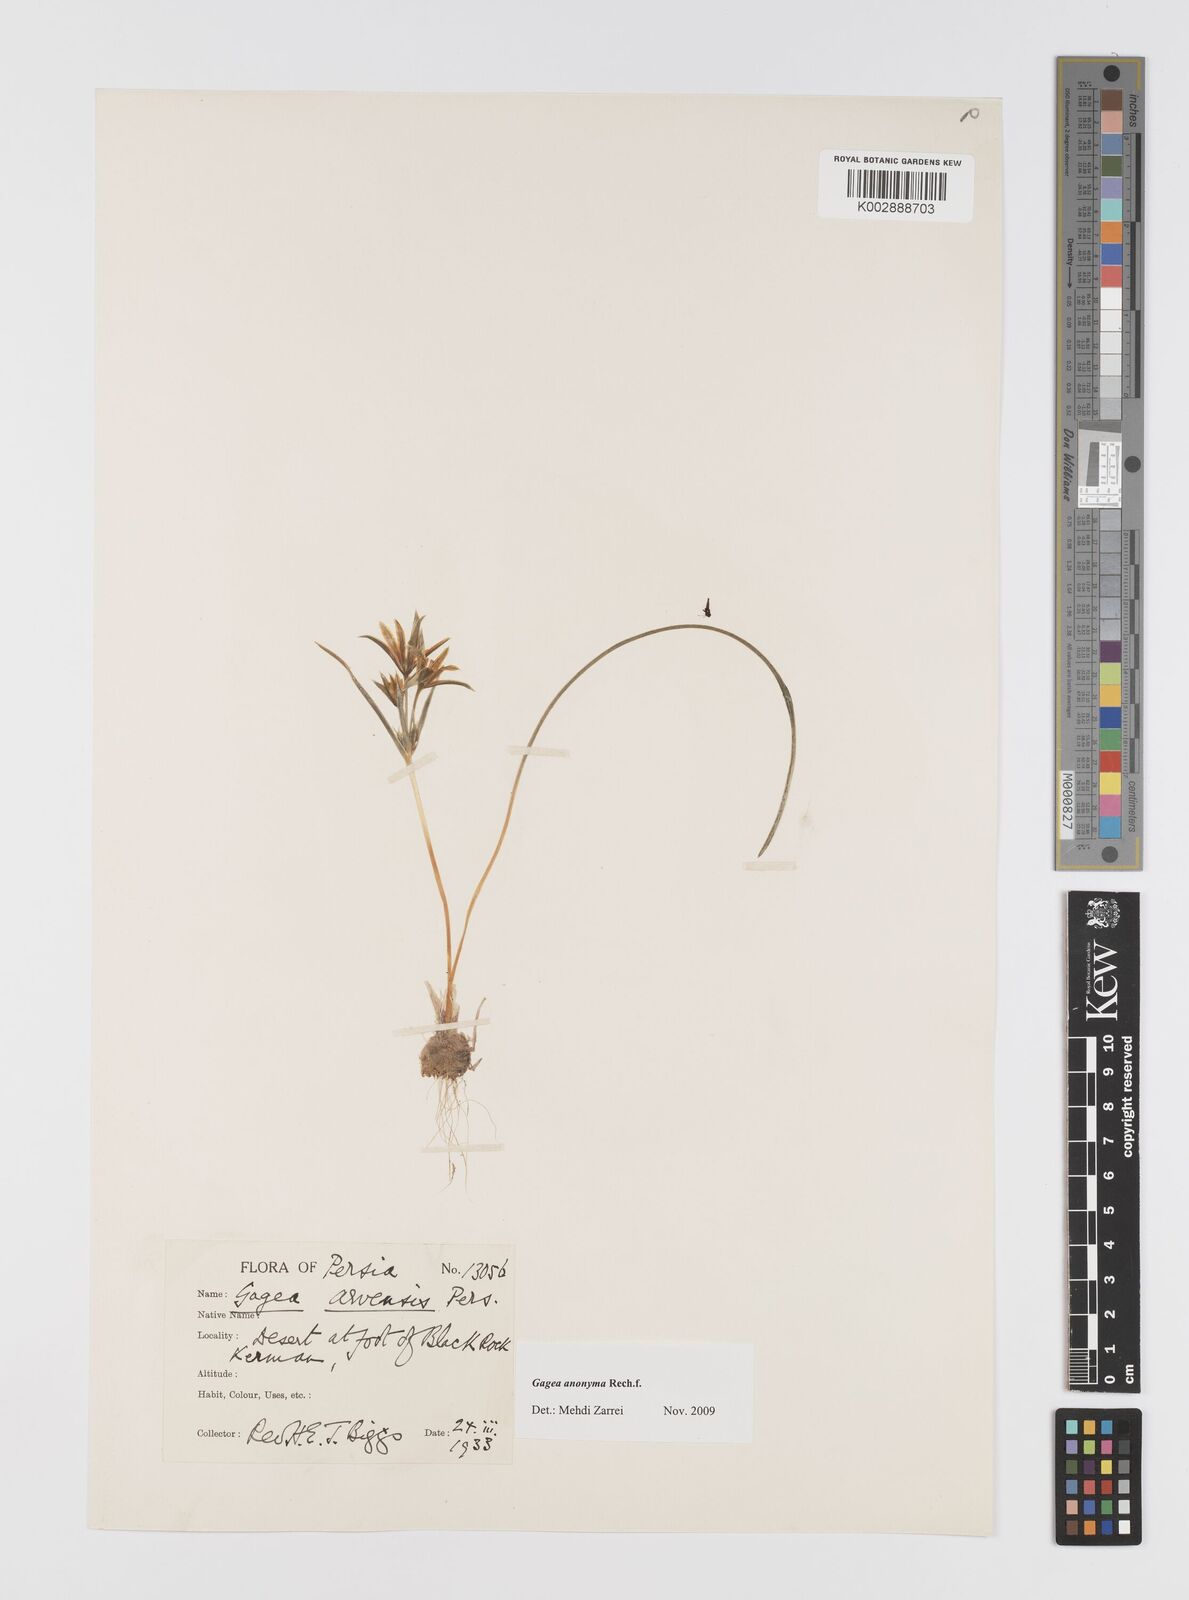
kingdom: Plantae
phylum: Tracheophyta
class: Liliopsida
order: Liliales
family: Liliaceae
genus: Gagea
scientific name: Gagea setifolia
